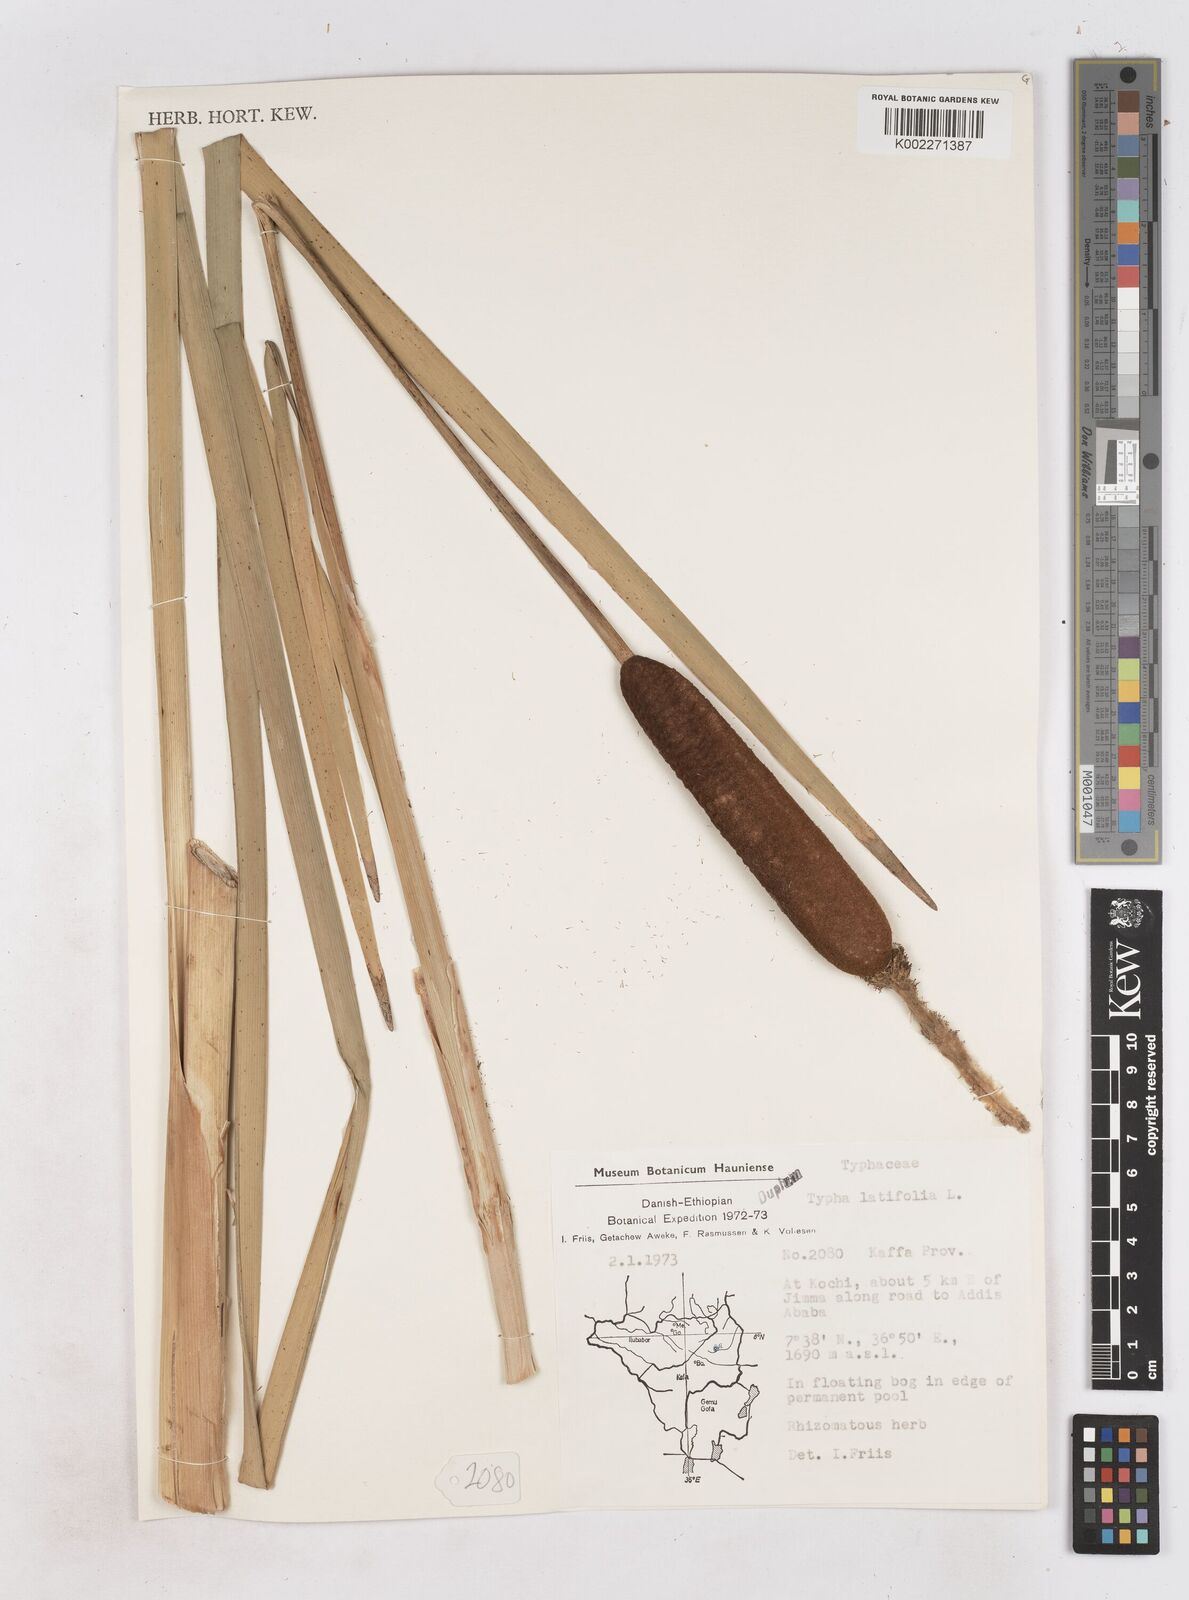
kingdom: Plantae
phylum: Tracheophyta
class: Liliopsida
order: Poales
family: Typhaceae
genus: Typha
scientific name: Typha latifolia
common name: Broadleaf cattail
